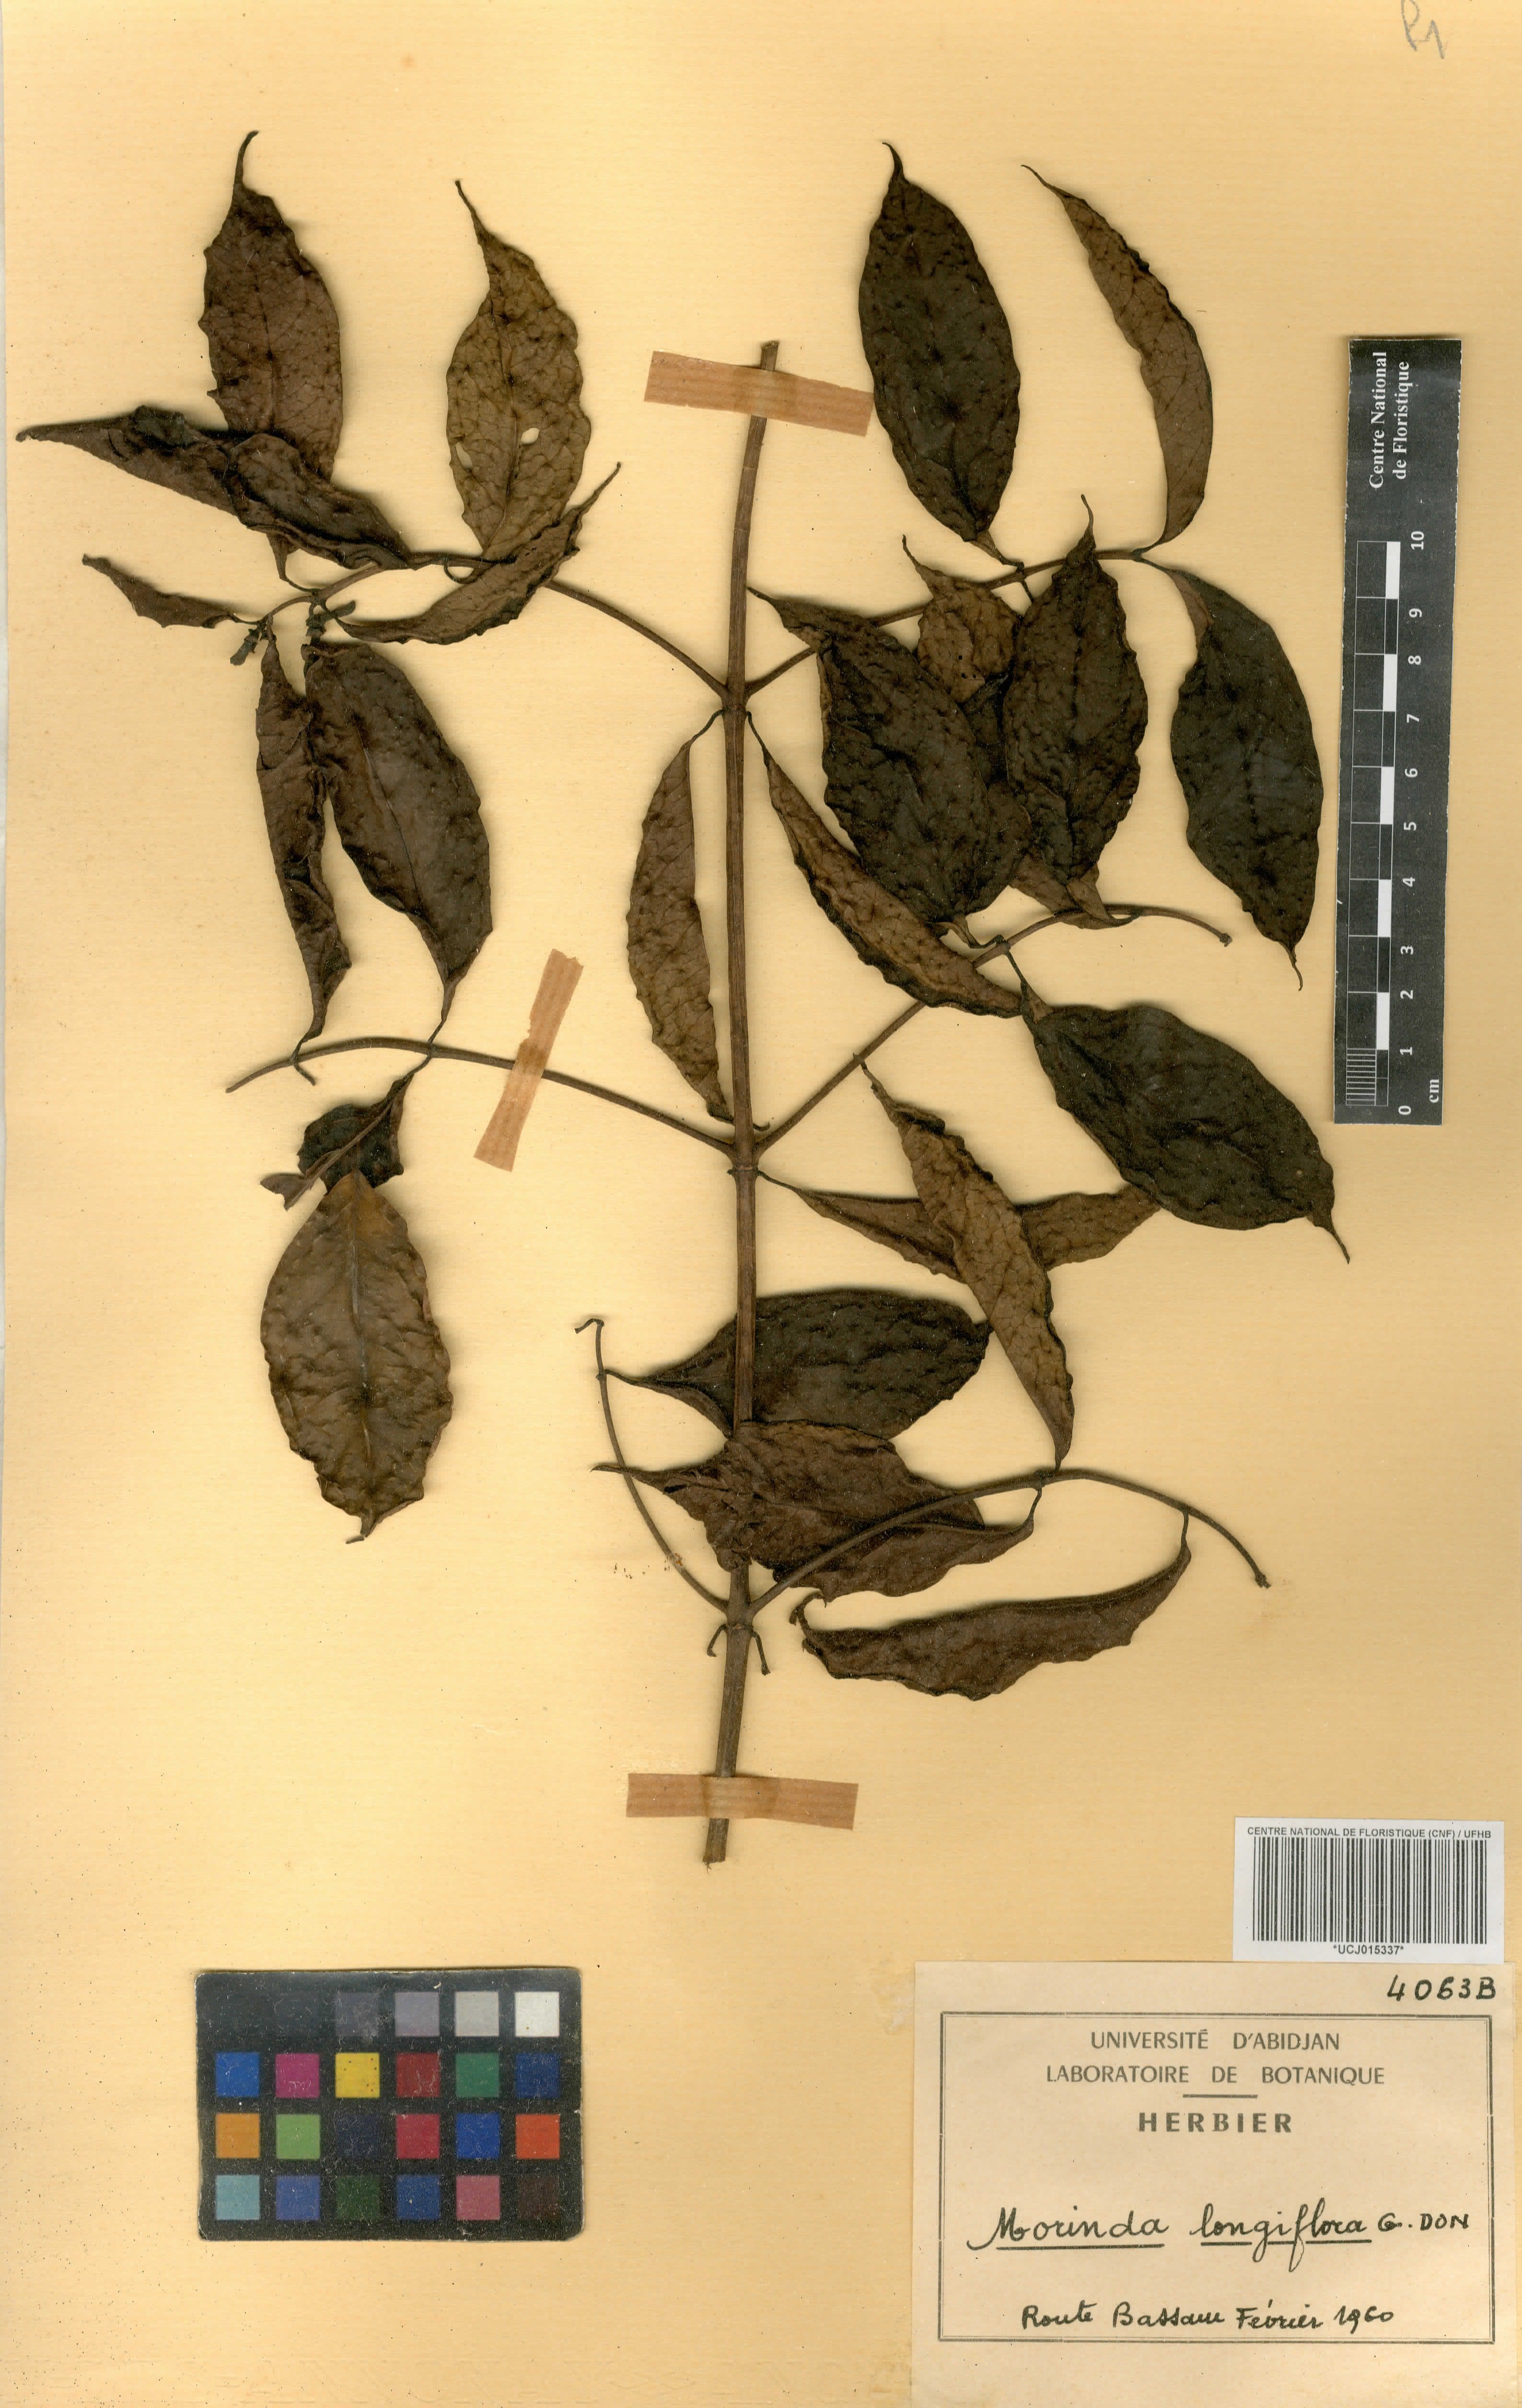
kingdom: Plantae
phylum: Tracheophyta
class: Magnoliopsida
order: Gentianales
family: Rubiaceae
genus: Morinda
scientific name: Morinda longiflora
